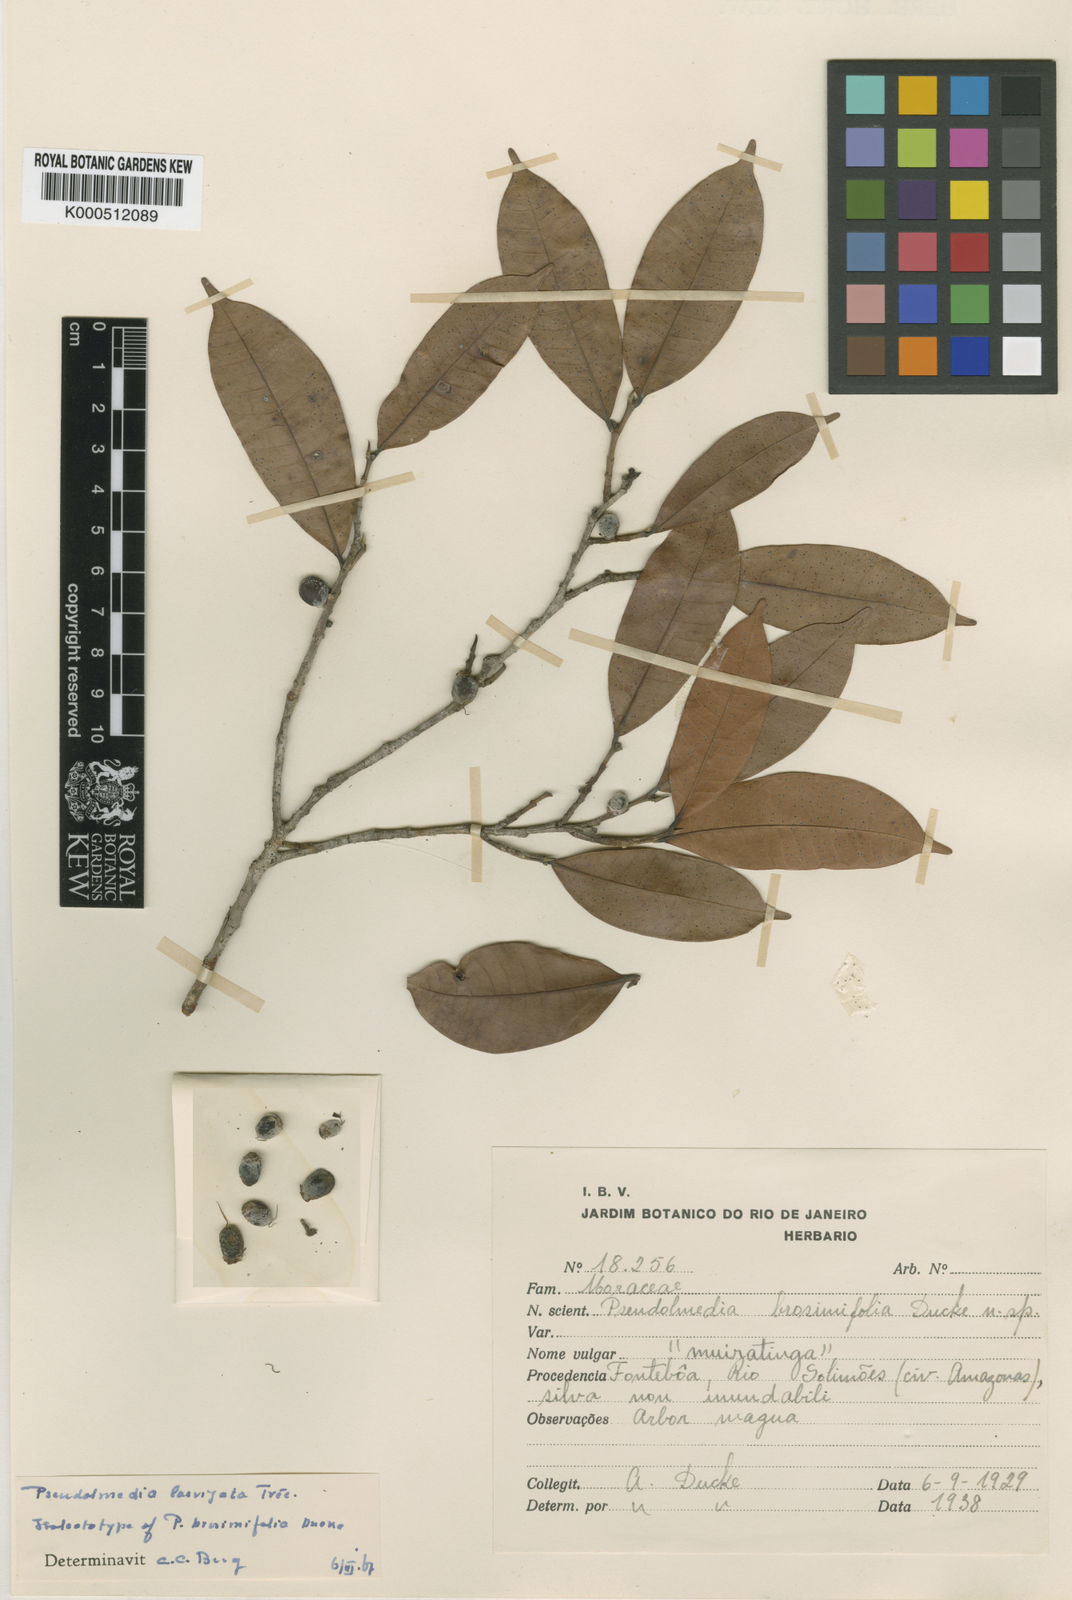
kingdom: Plantae
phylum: Tracheophyta
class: Magnoliopsida
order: Rosales
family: Moraceae
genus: Pseudolmedia
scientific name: Pseudolmedia
